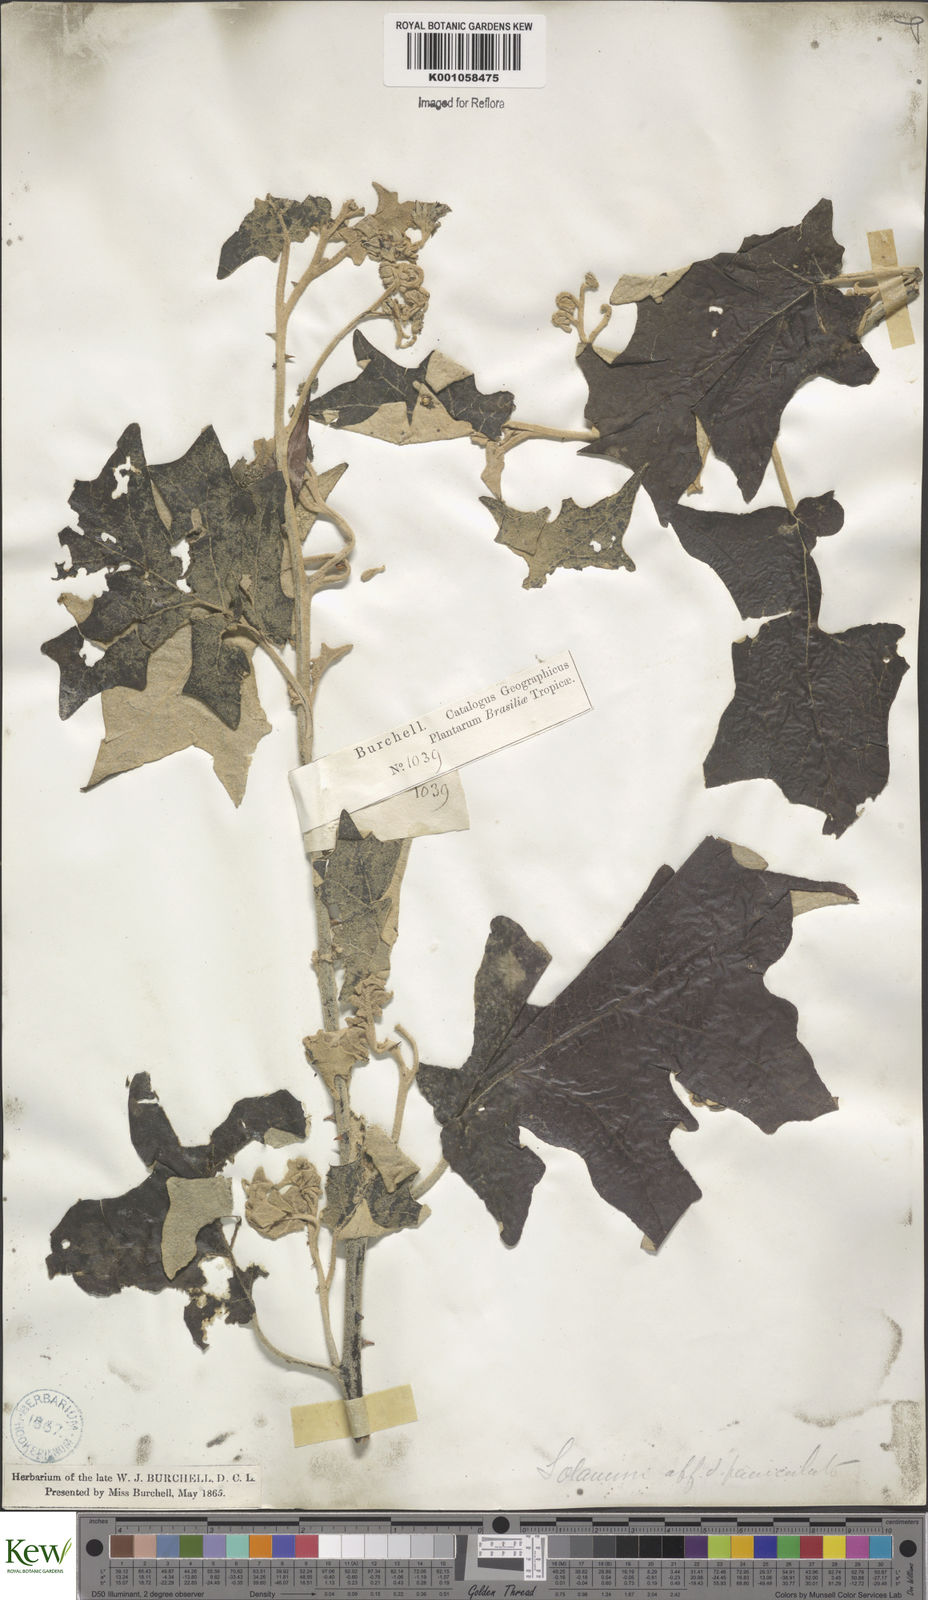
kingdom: Plantae
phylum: Tracheophyta
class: Magnoliopsida
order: Solanales
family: Solanaceae
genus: Solanum
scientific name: Solanum paniculatum
